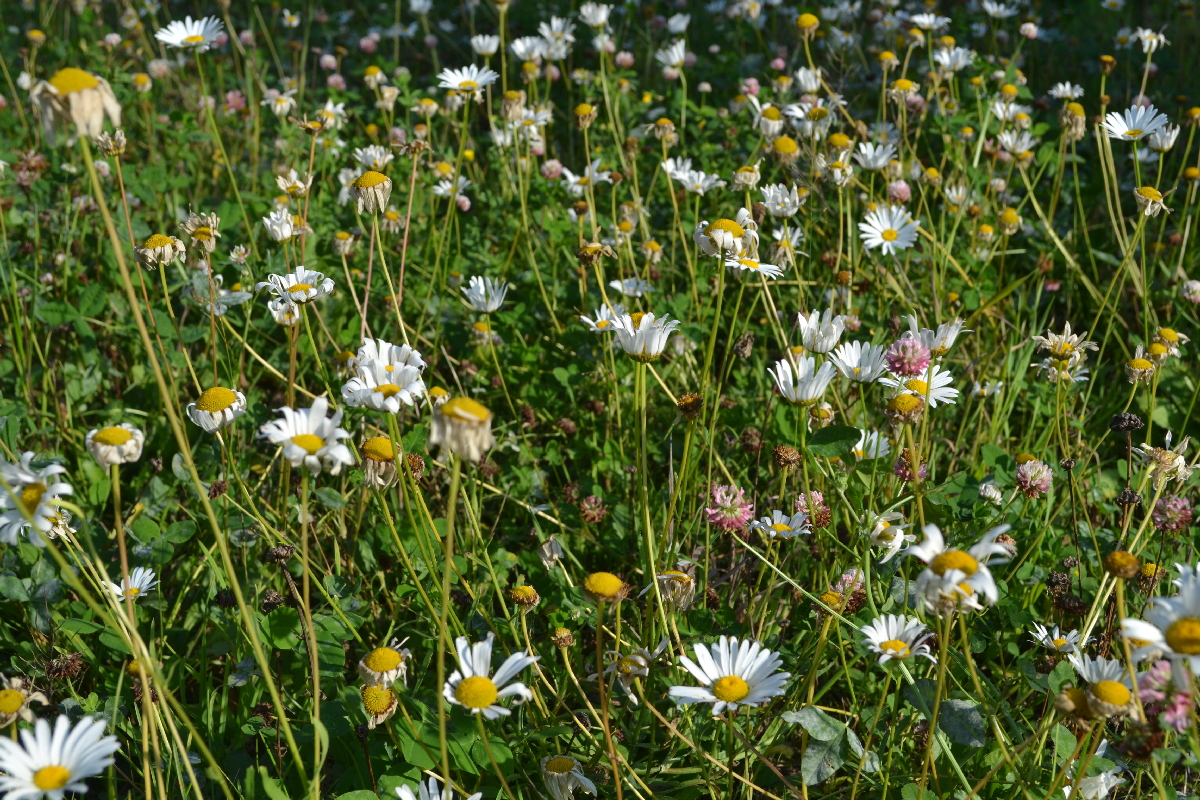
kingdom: Plantae
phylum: Tracheophyta
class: Magnoliopsida
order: Asterales
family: Asteraceae
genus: Leucanthemum
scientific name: Leucanthemum vulgare
